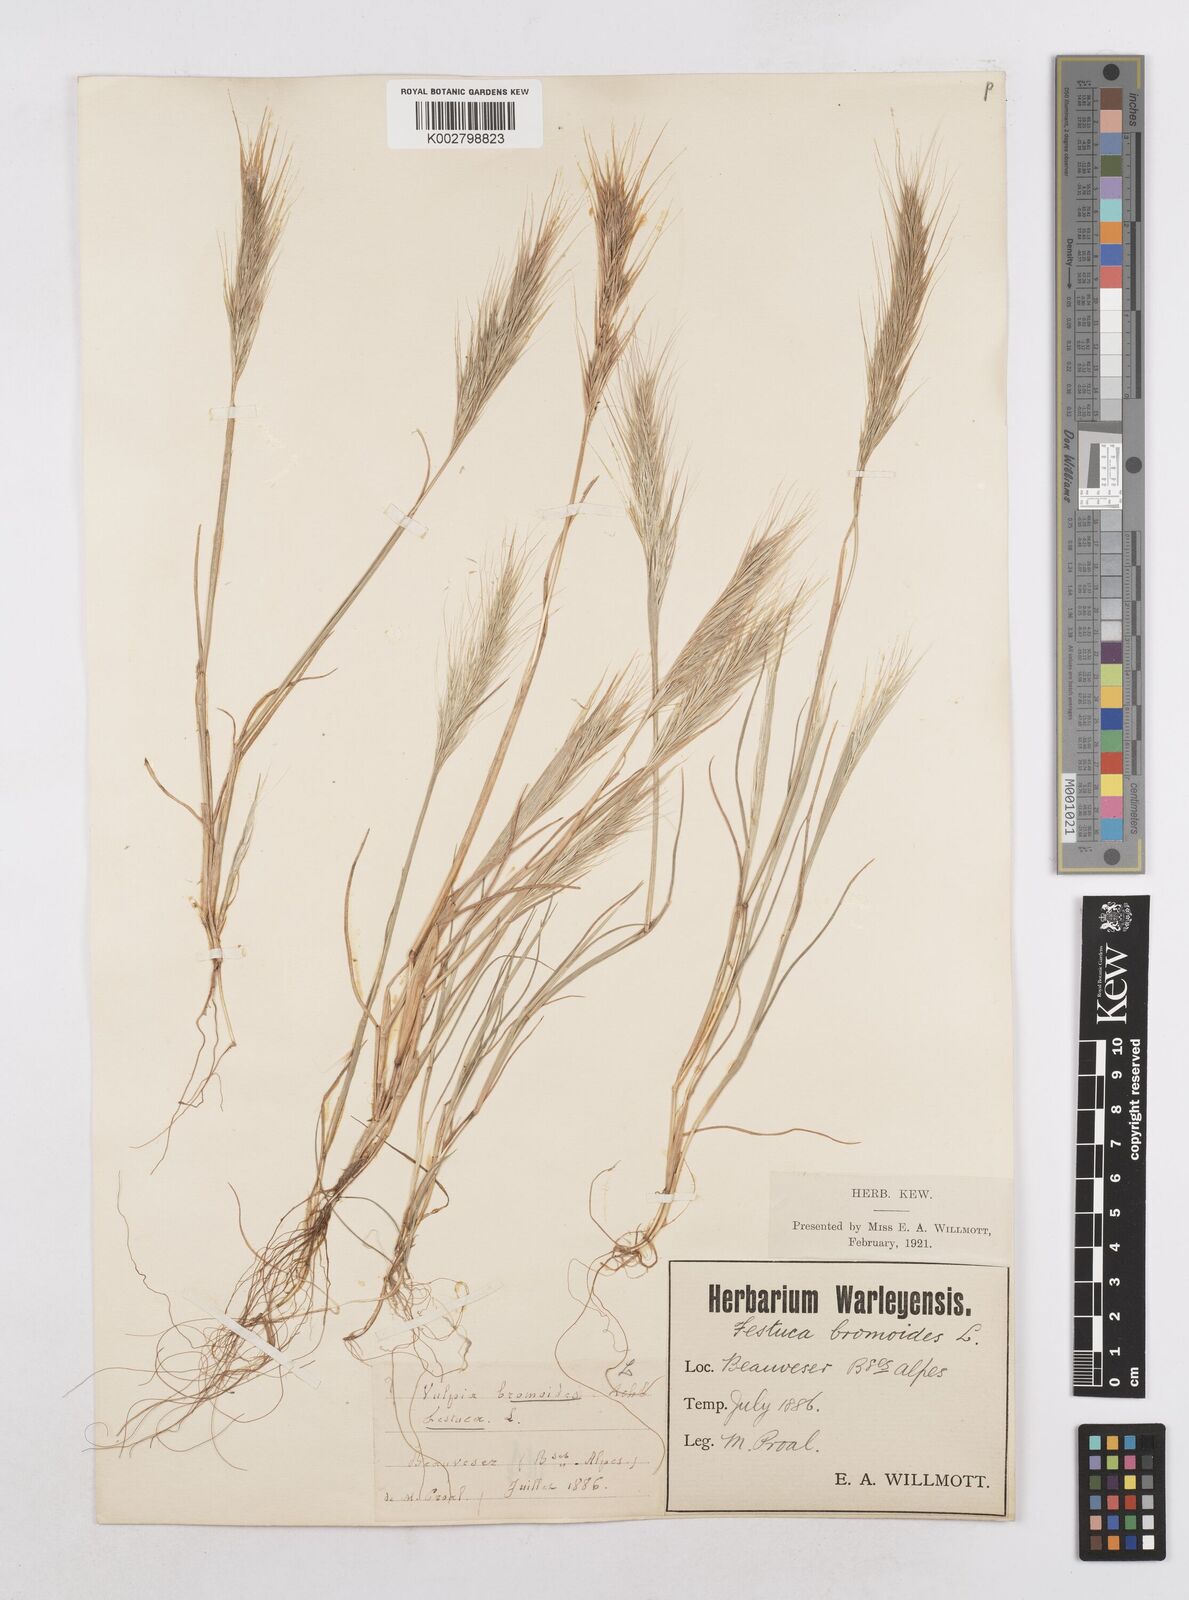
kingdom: Plantae
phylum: Tracheophyta
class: Liliopsida
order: Poales
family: Poaceae
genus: Festuca
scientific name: Festuca membranacea
